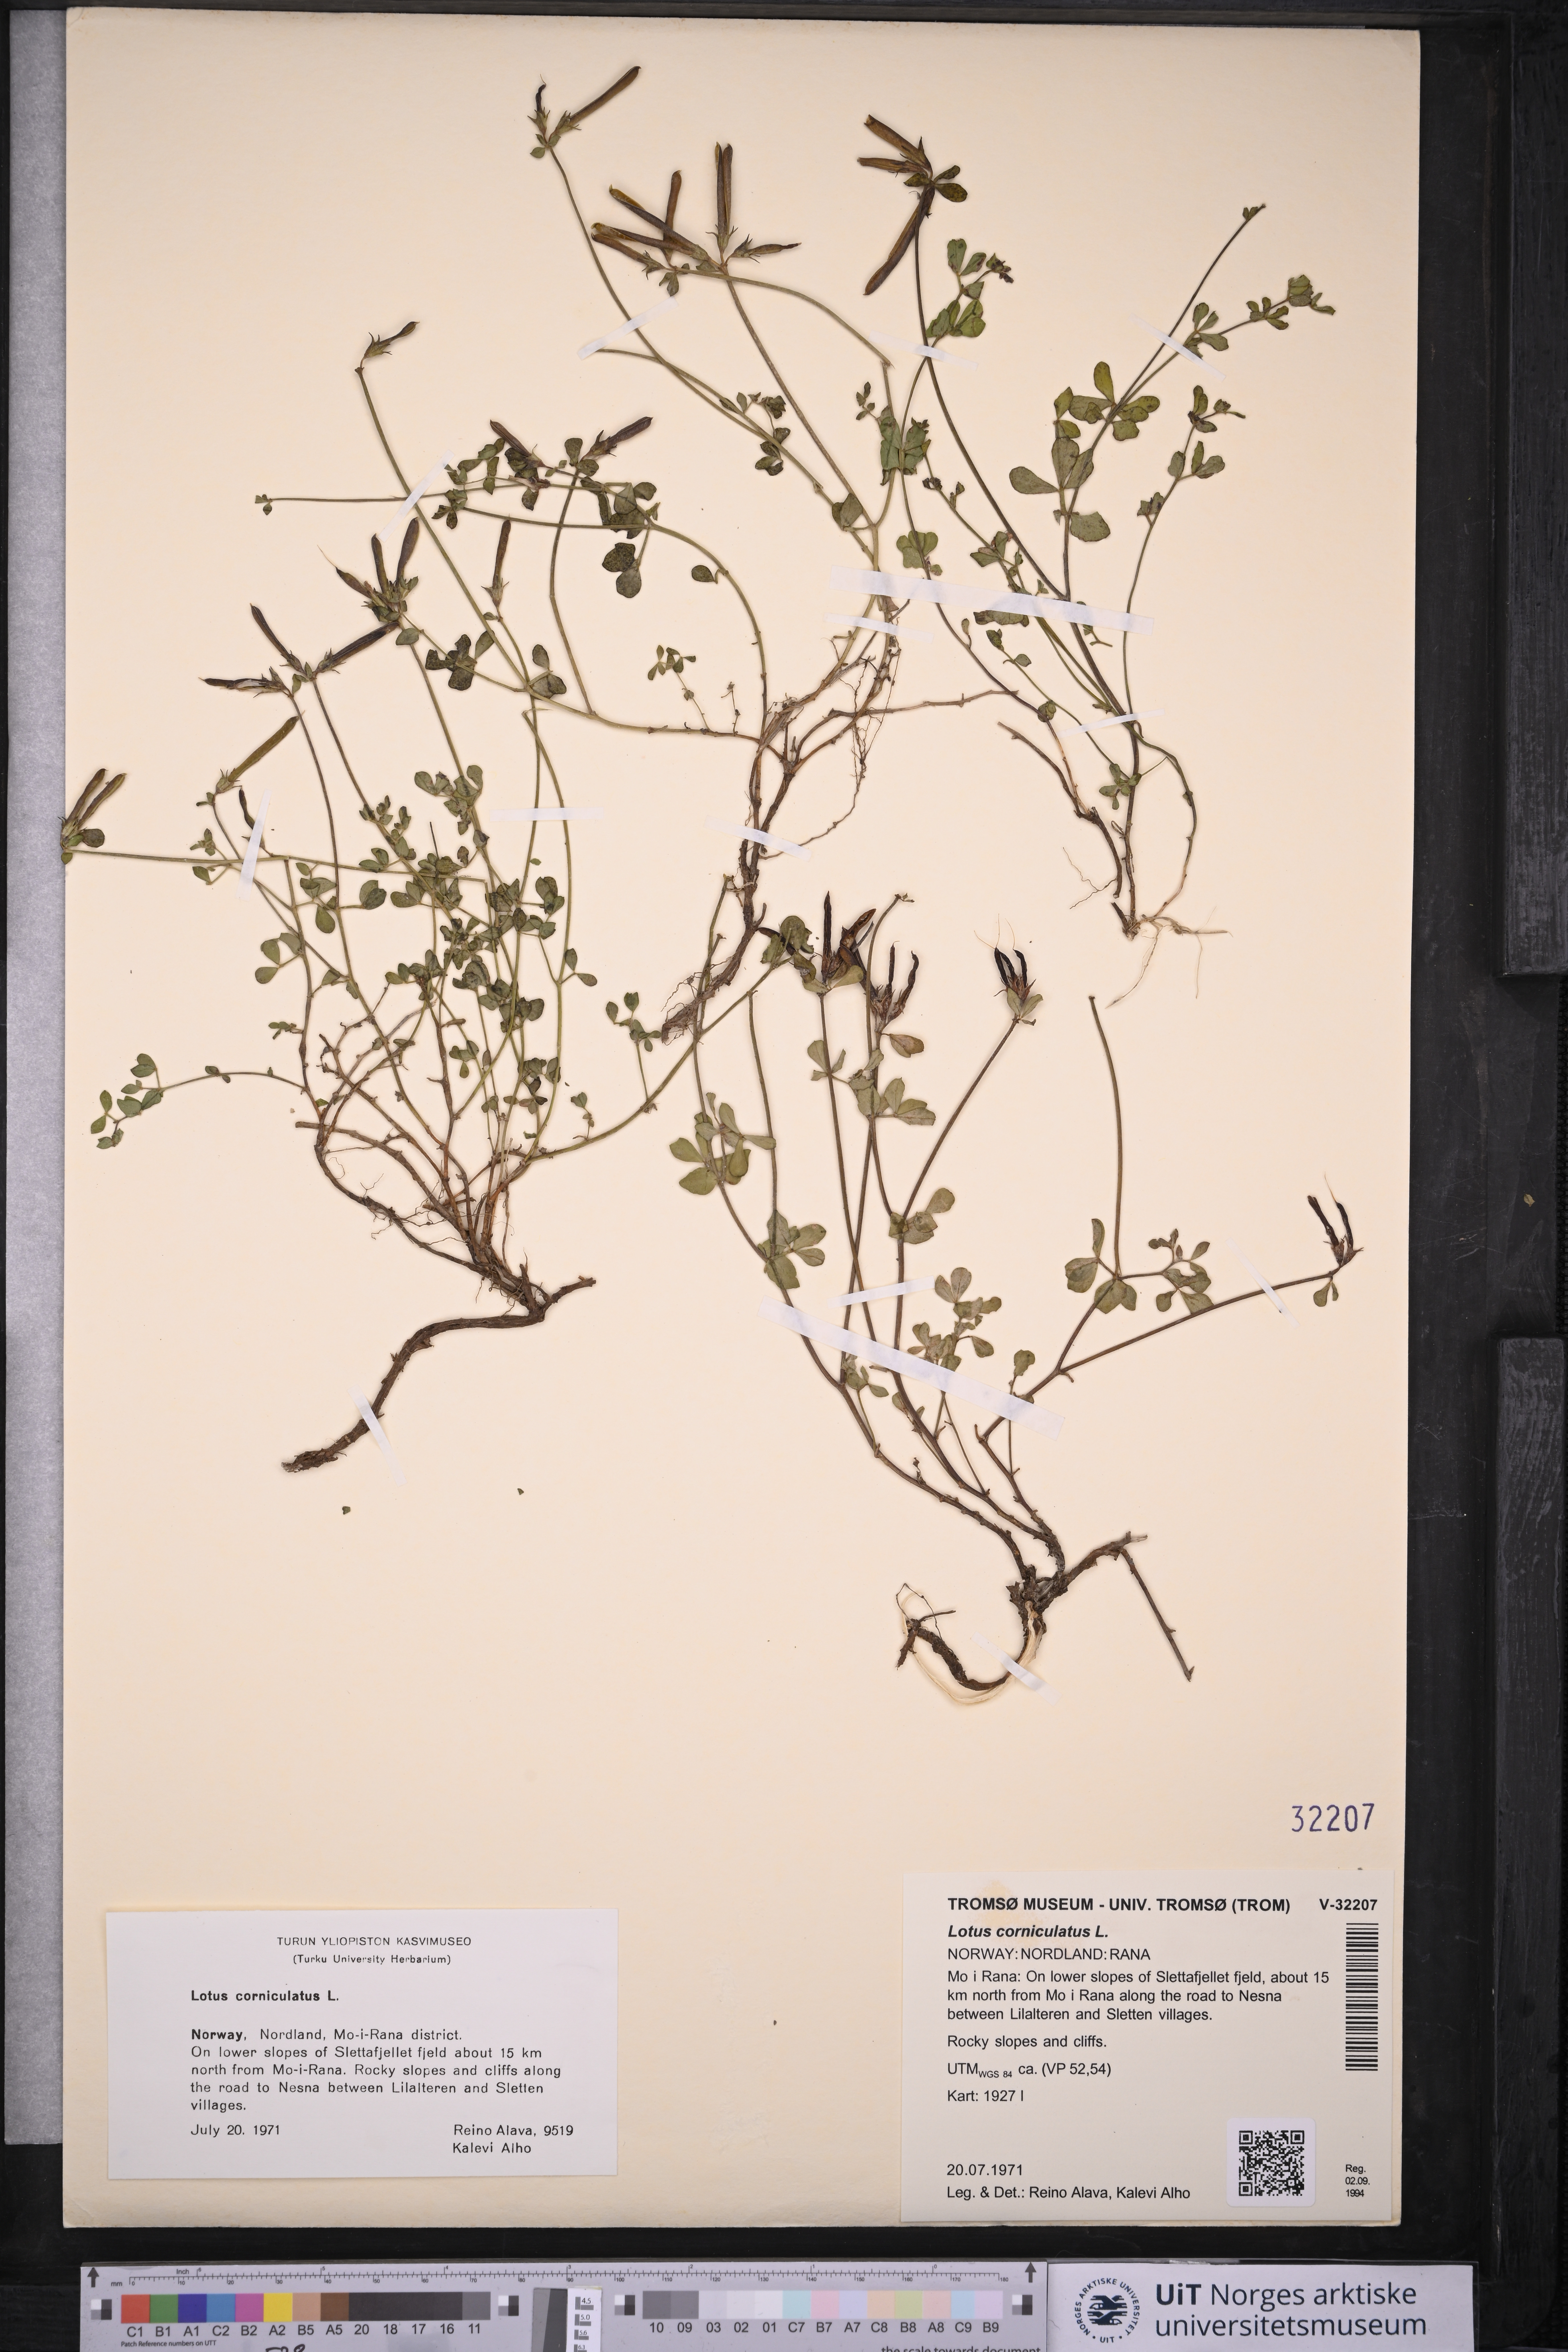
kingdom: Plantae
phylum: Tracheophyta
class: Magnoliopsida
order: Fabales
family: Fabaceae
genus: Lotus
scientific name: Lotus corniculatus
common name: Common bird's-foot-trefoil
